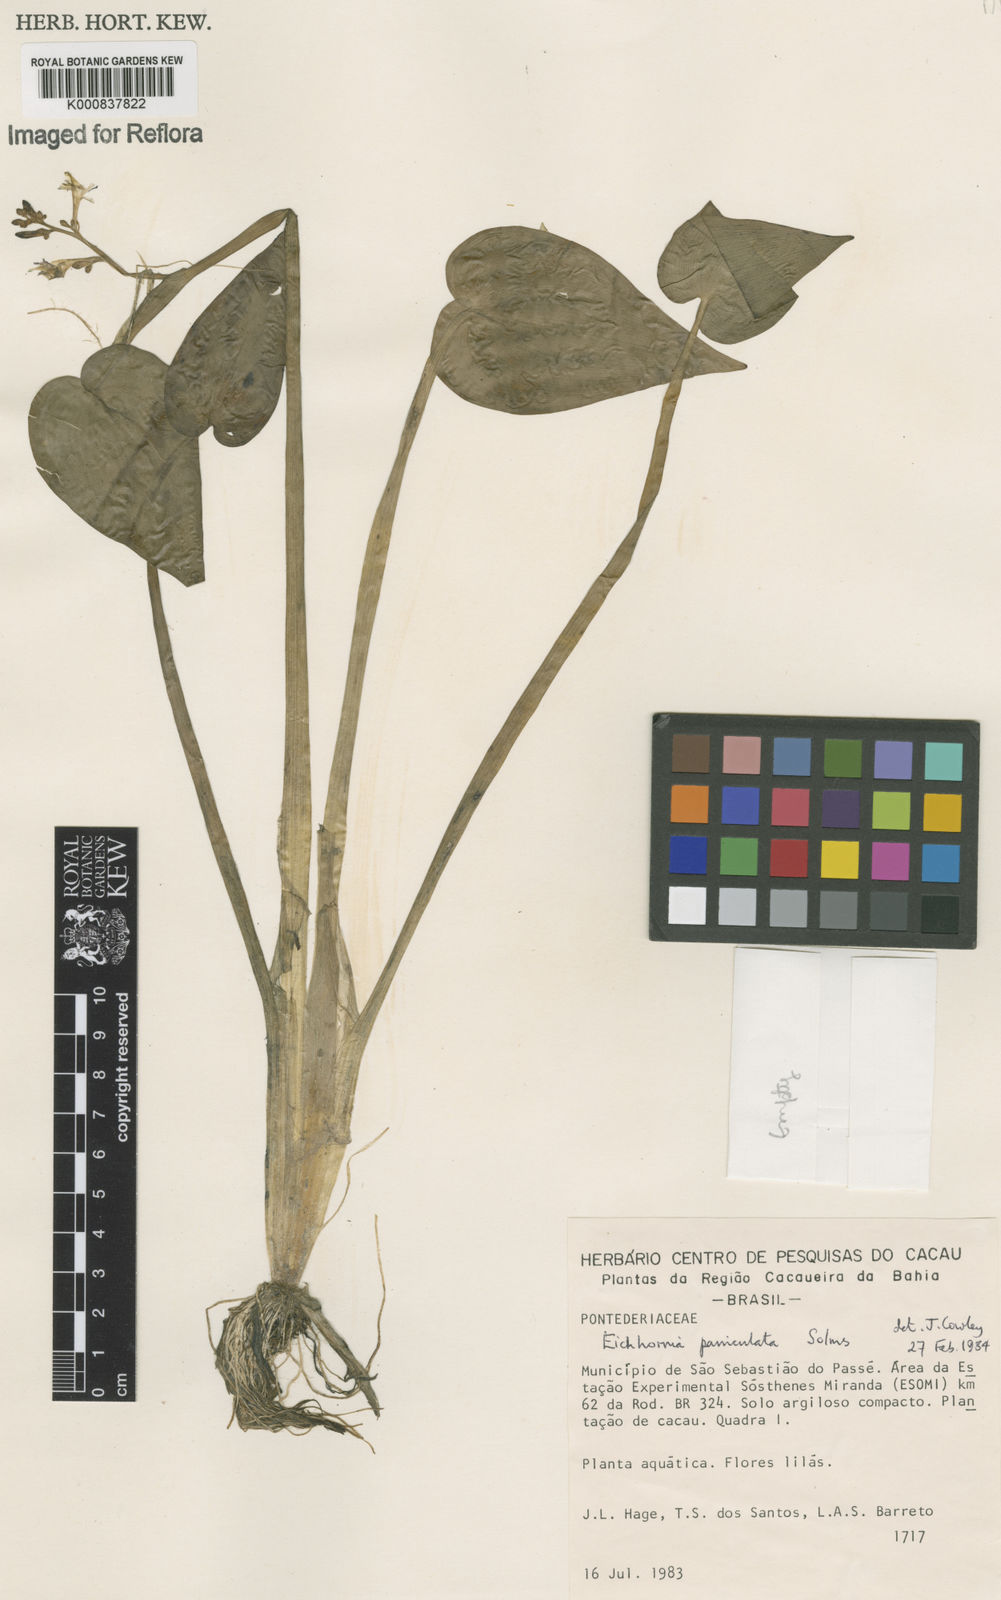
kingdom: Plantae
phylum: Tracheophyta
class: Liliopsida
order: Commelinales
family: Pontederiaceae
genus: Pontederia
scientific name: Pontederia paniculata
